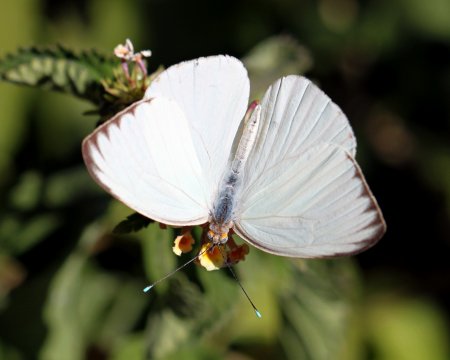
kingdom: Animalia
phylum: Arthropoda
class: Insecta
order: Lepidoptera
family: Pieridae
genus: Ascia
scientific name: Ascia monuste
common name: Great Southern White
